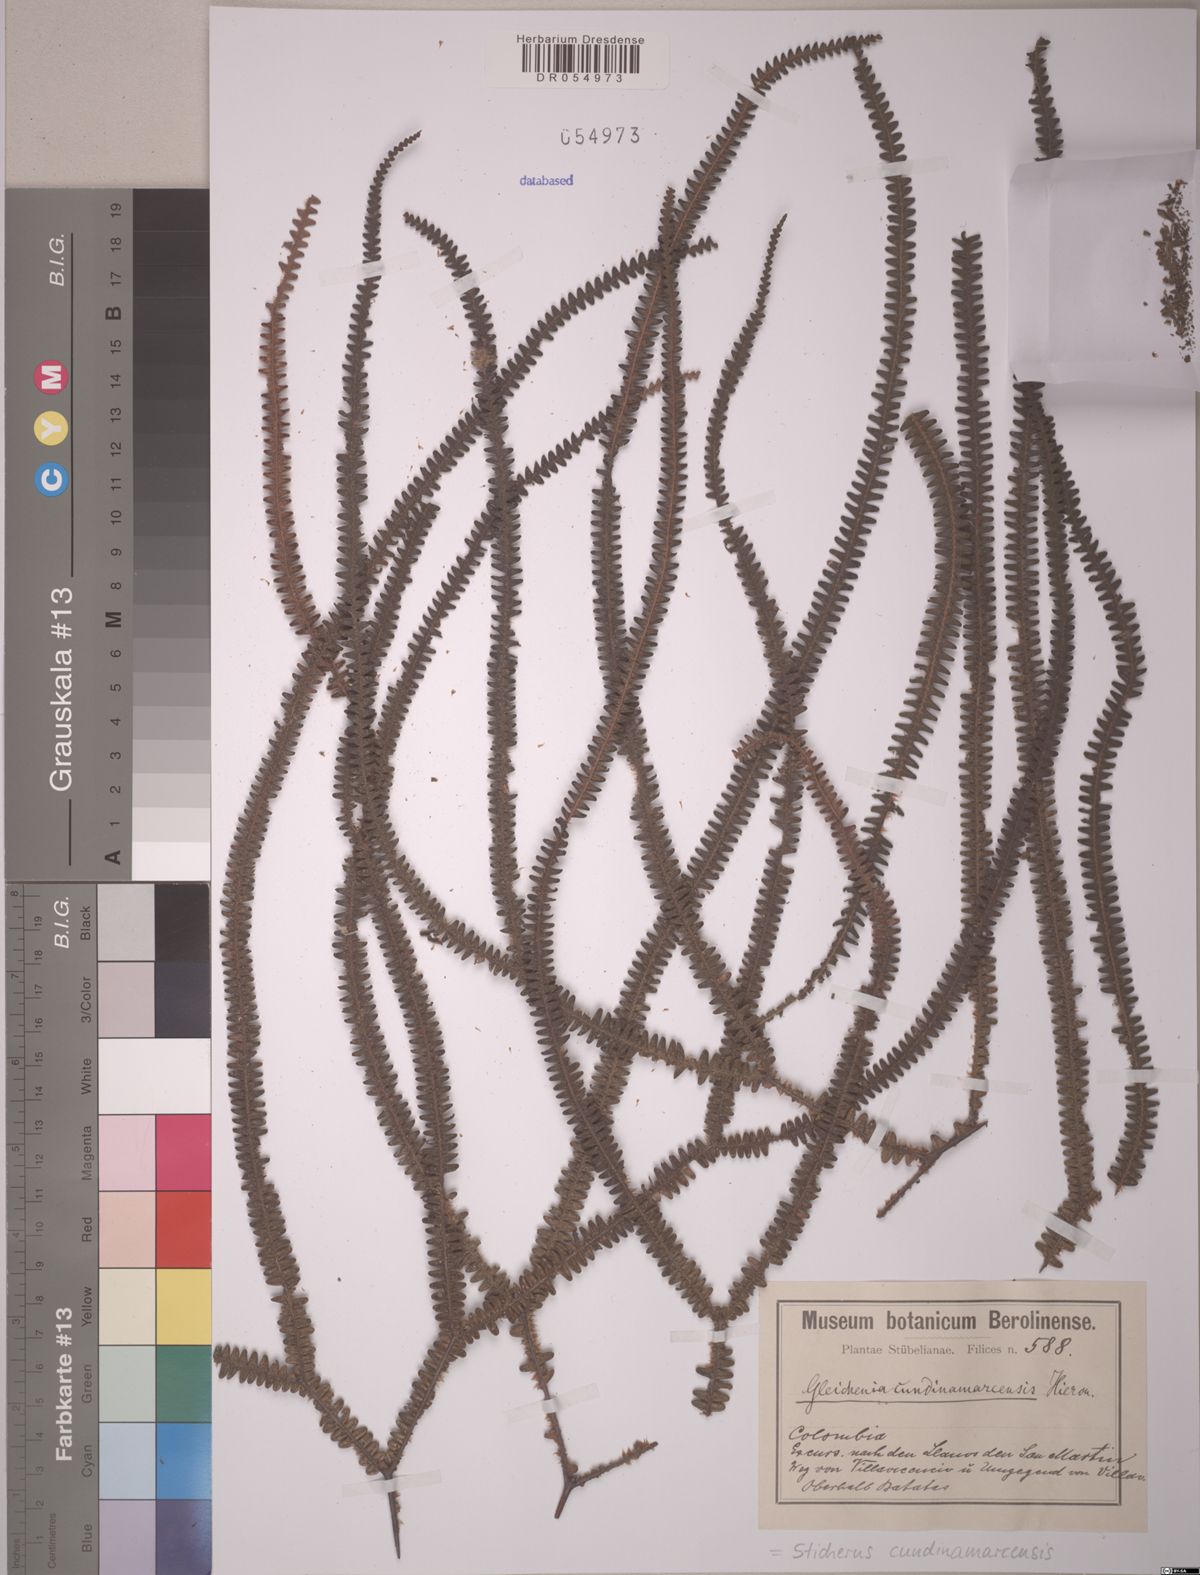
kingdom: Plantae
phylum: Tracheophyta
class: Polypodiopsida
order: Gleicheniales
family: Gleicheniaceae
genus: Sticherus
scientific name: Sticherus cundinamarcensis
